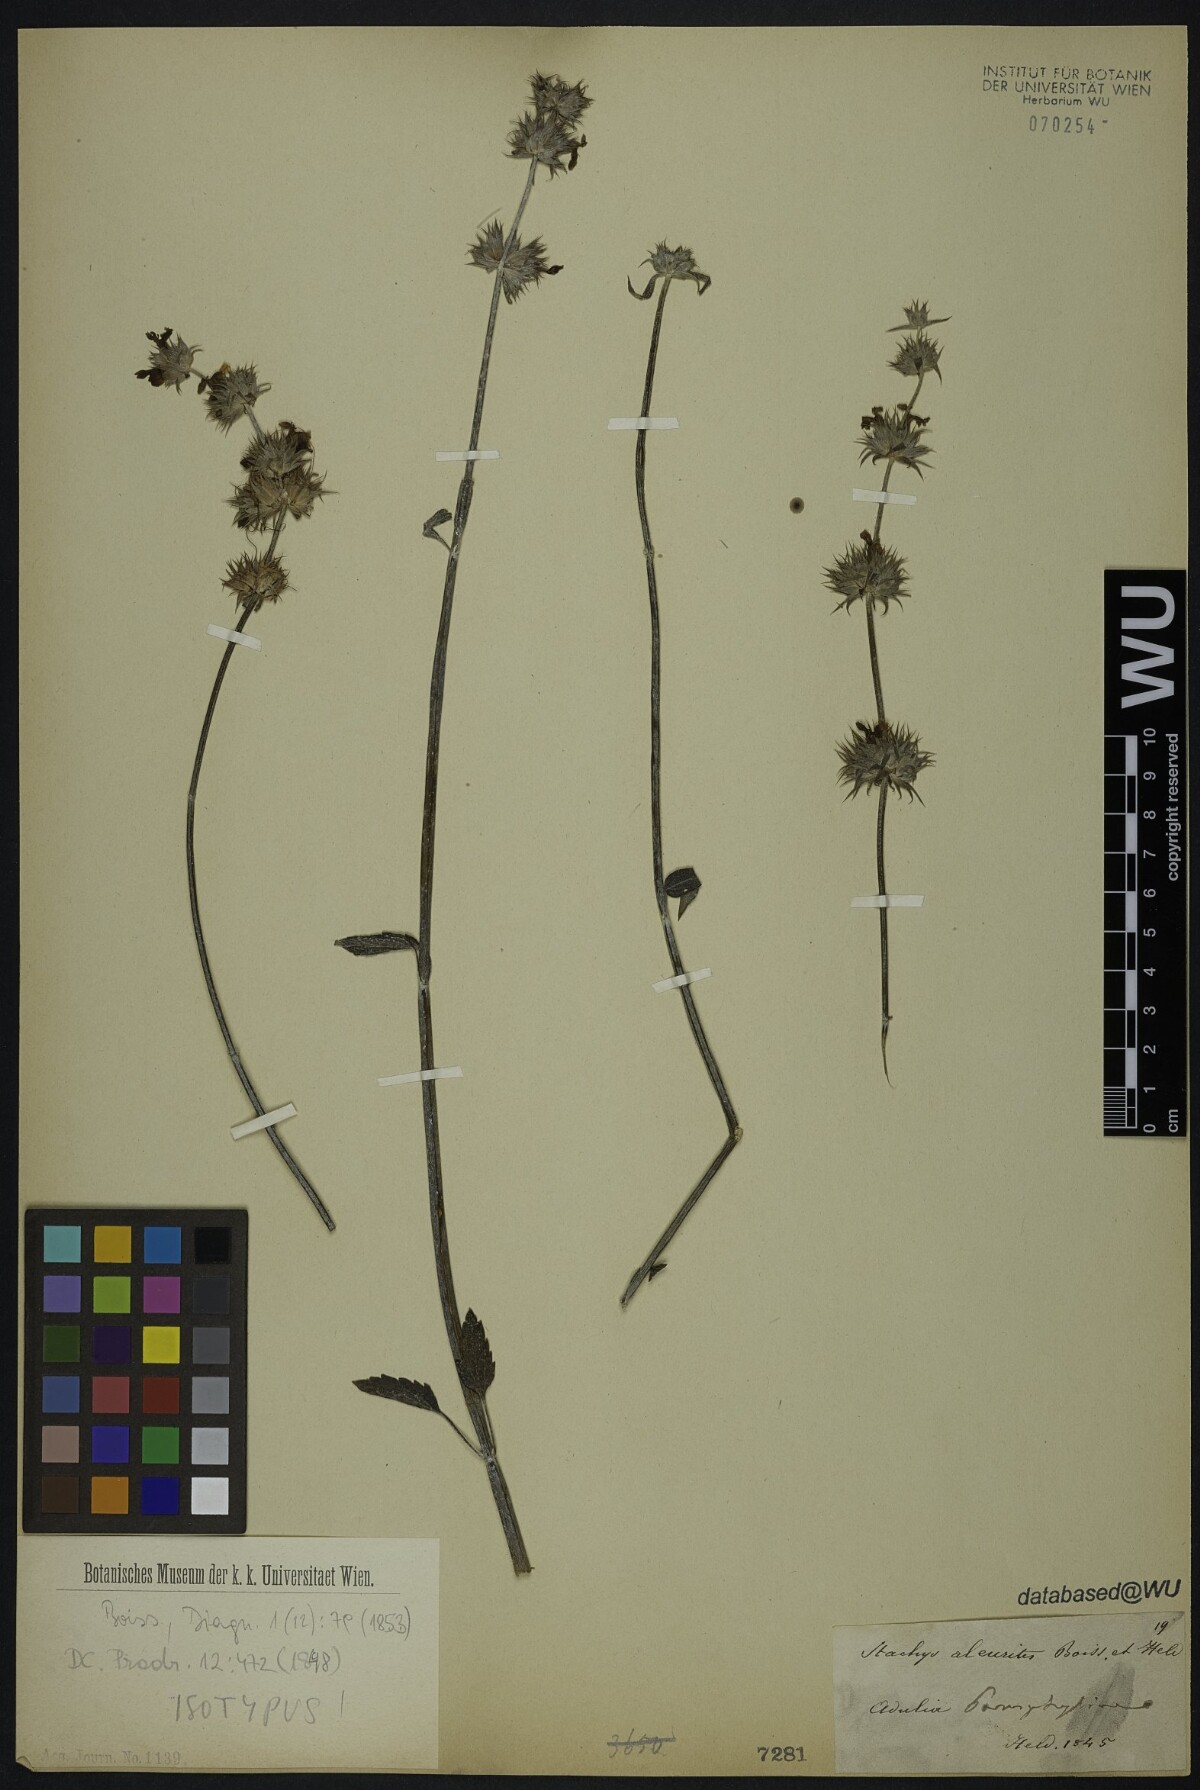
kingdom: Plantae
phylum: Tracheophyta
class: Magnoliopsida
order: Lamiales
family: Lamiaceae
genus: Stachys
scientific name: Stachys aleurites
